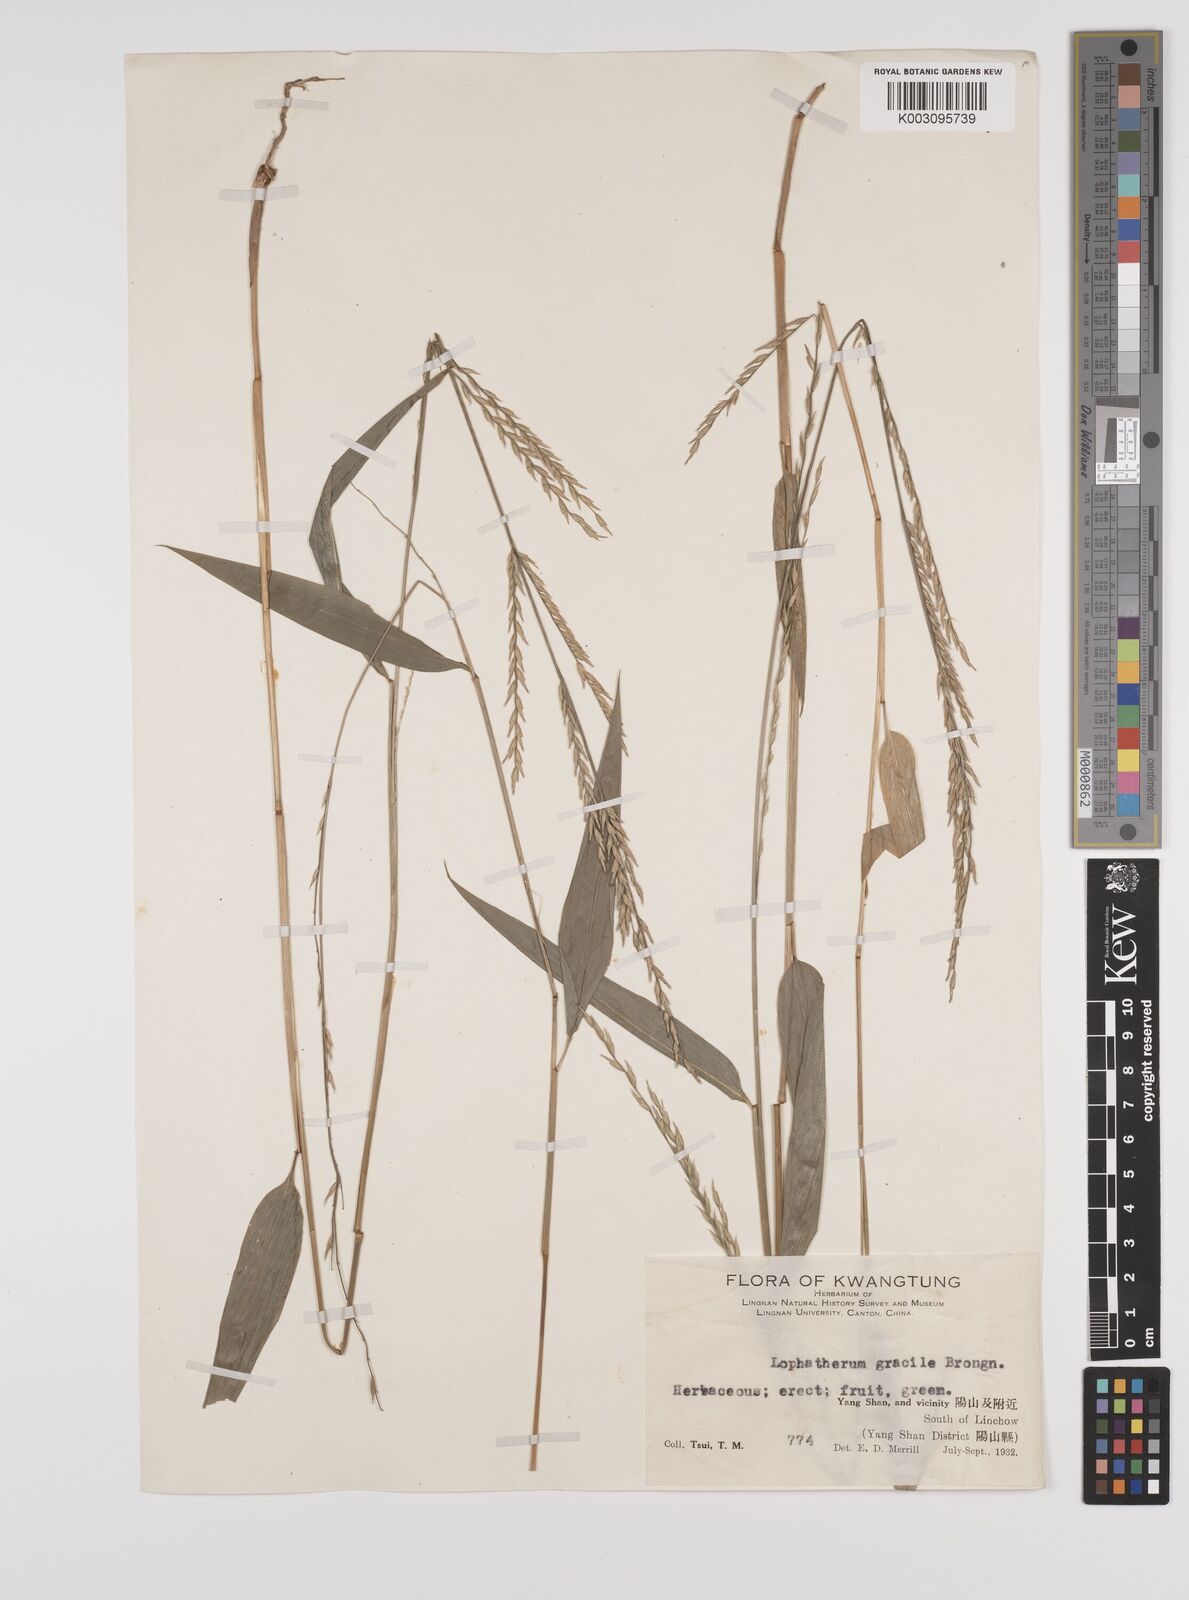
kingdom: Plantae
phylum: Tracheophyta
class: Liliopsida
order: Poales
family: Poaceae
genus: Lophatherum
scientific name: Lophatherum gracile
